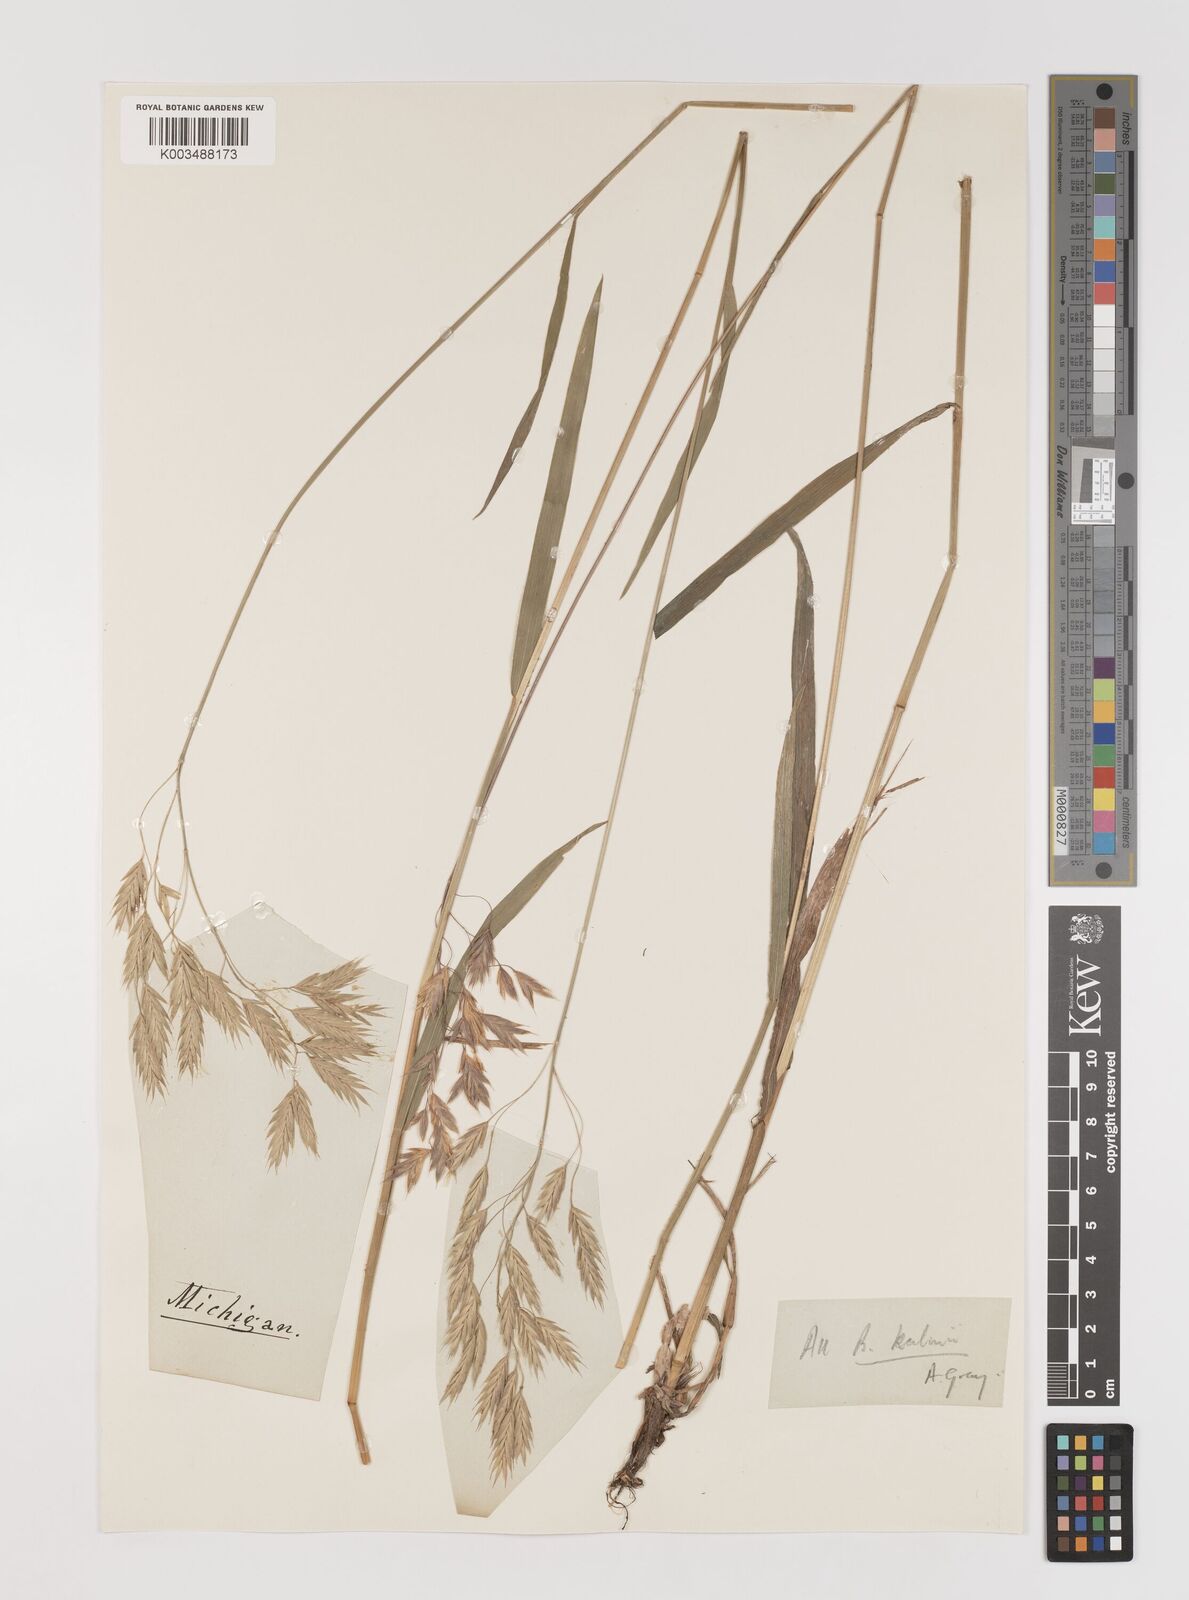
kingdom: Plantae
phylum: Tracheophyta
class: Liliopsida
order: Poales
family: Poaceae
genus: Bromus
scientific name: Bromus kalmii
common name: Kalm brome
